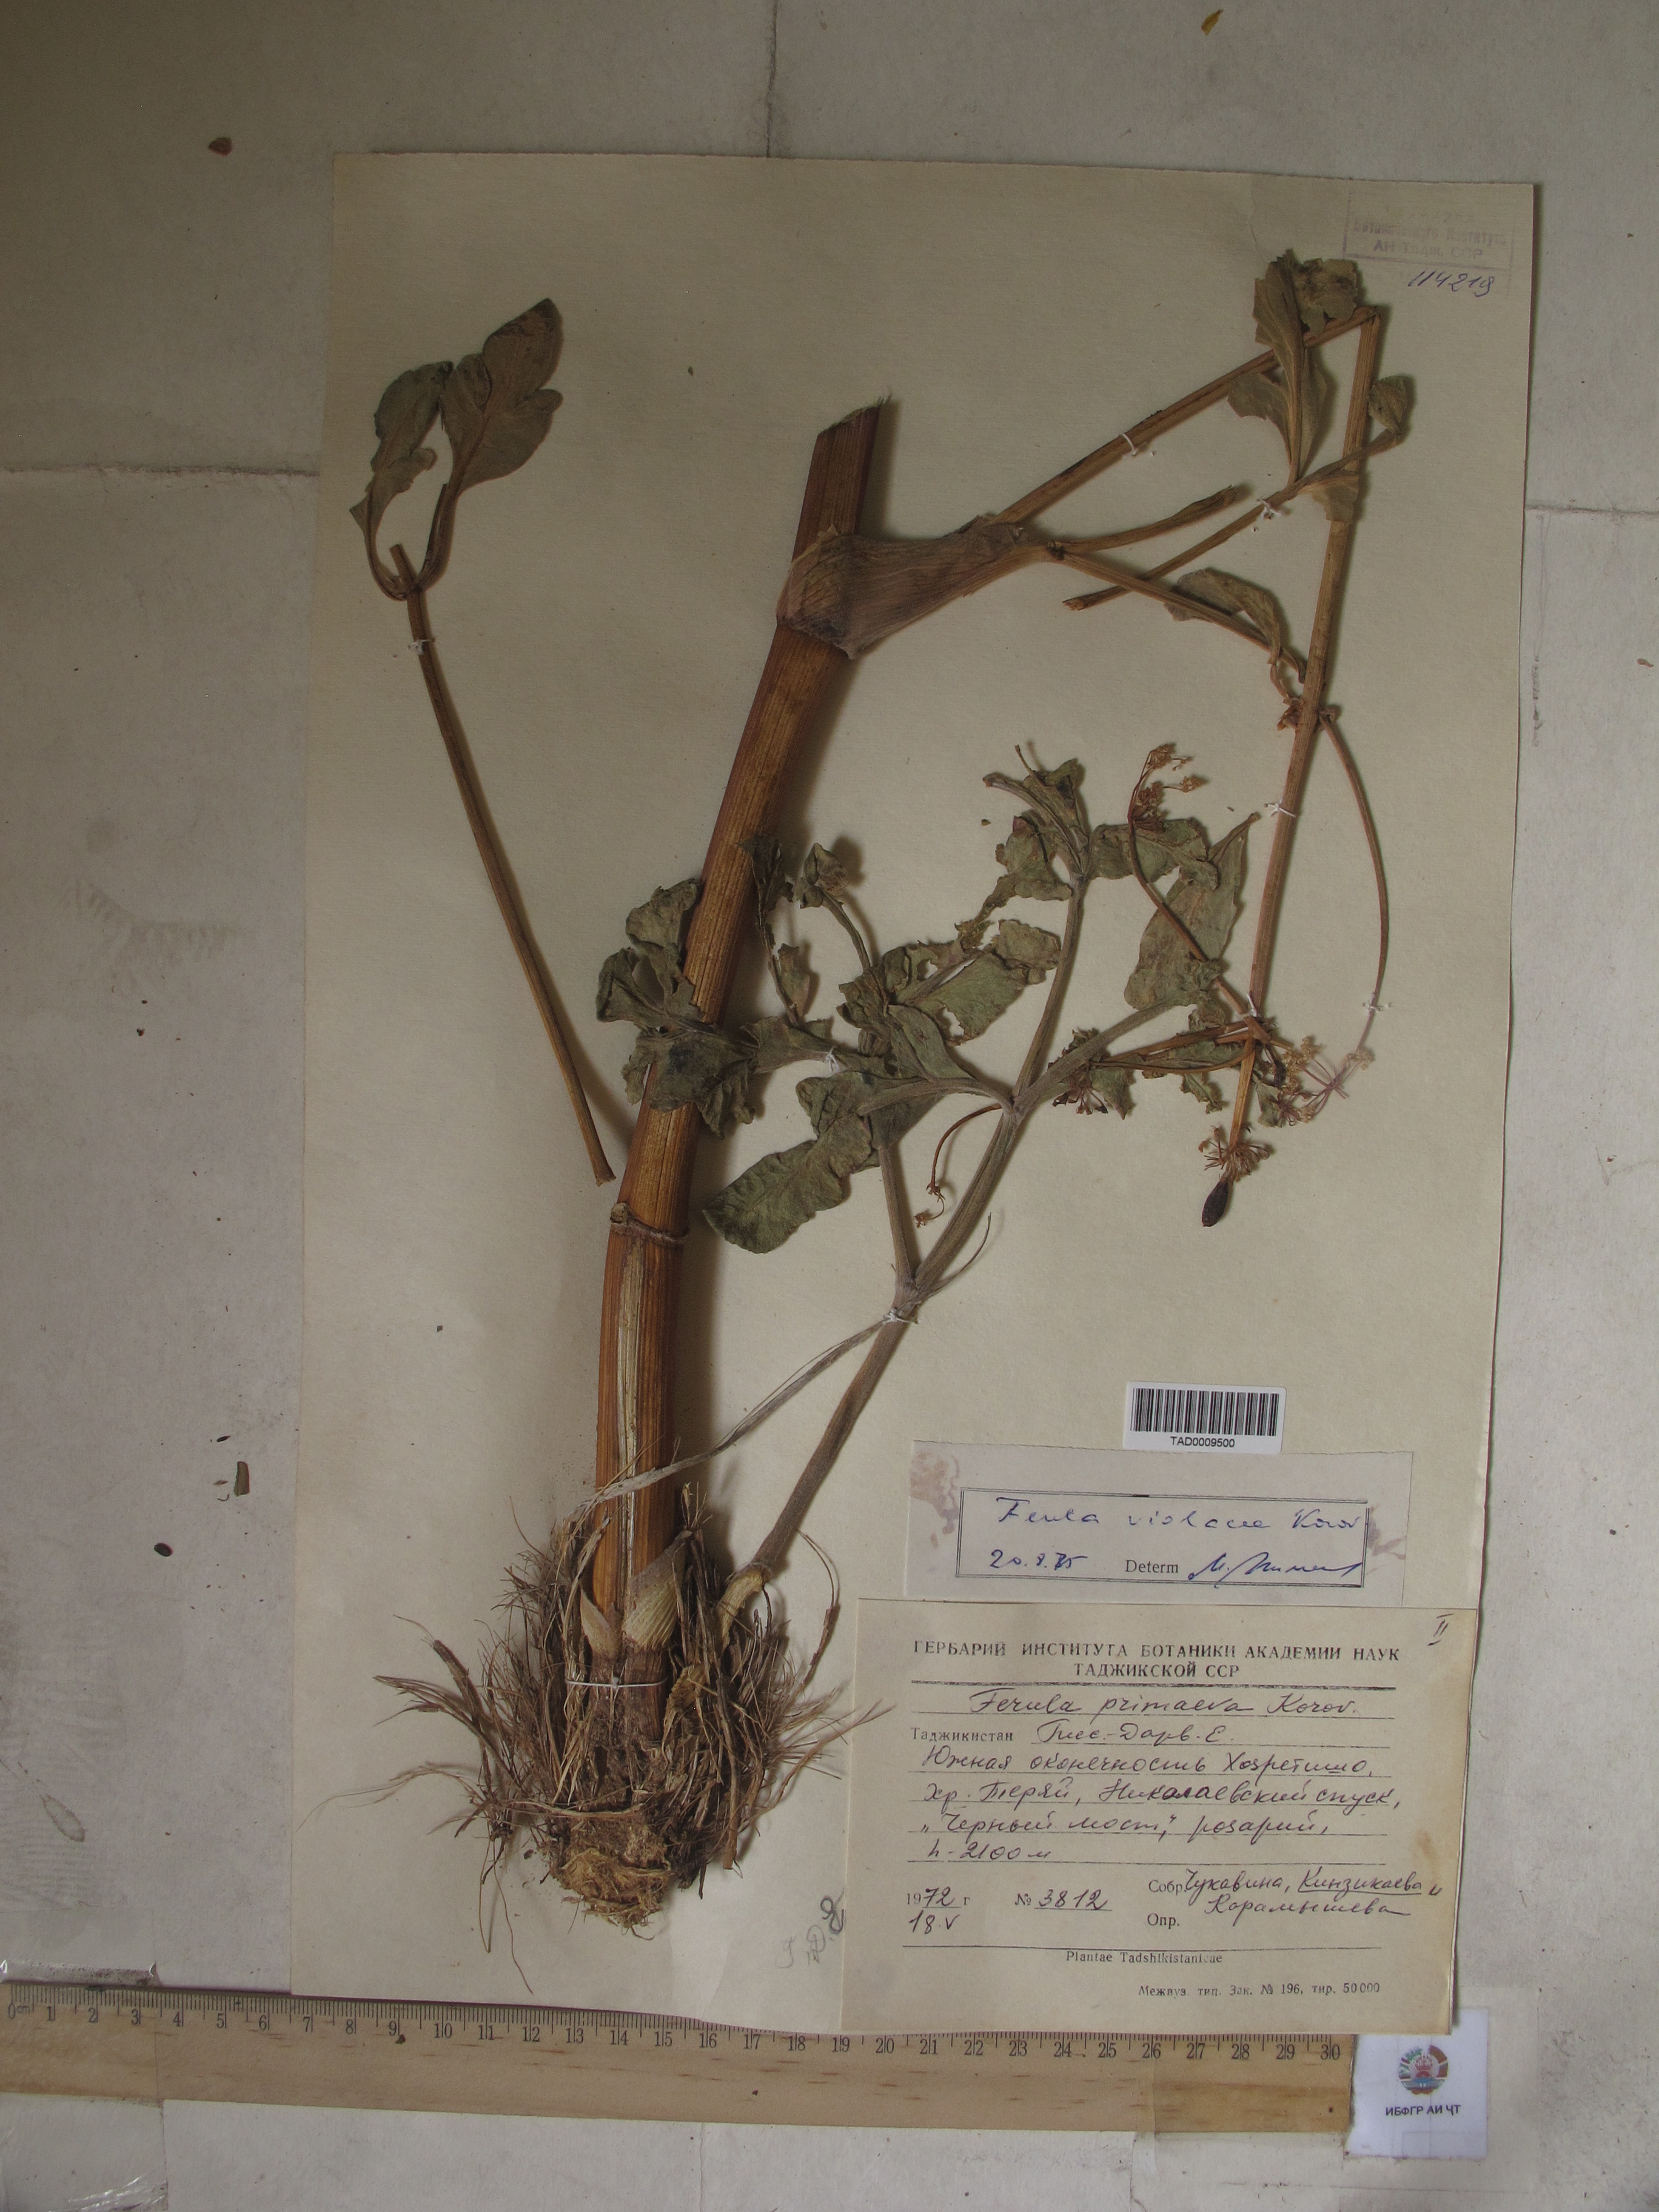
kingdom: Plantae
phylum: Tracheophyta
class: Magnoliopsida
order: Apiales
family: Apiaceae
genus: Ferula
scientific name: Ferula violacea
